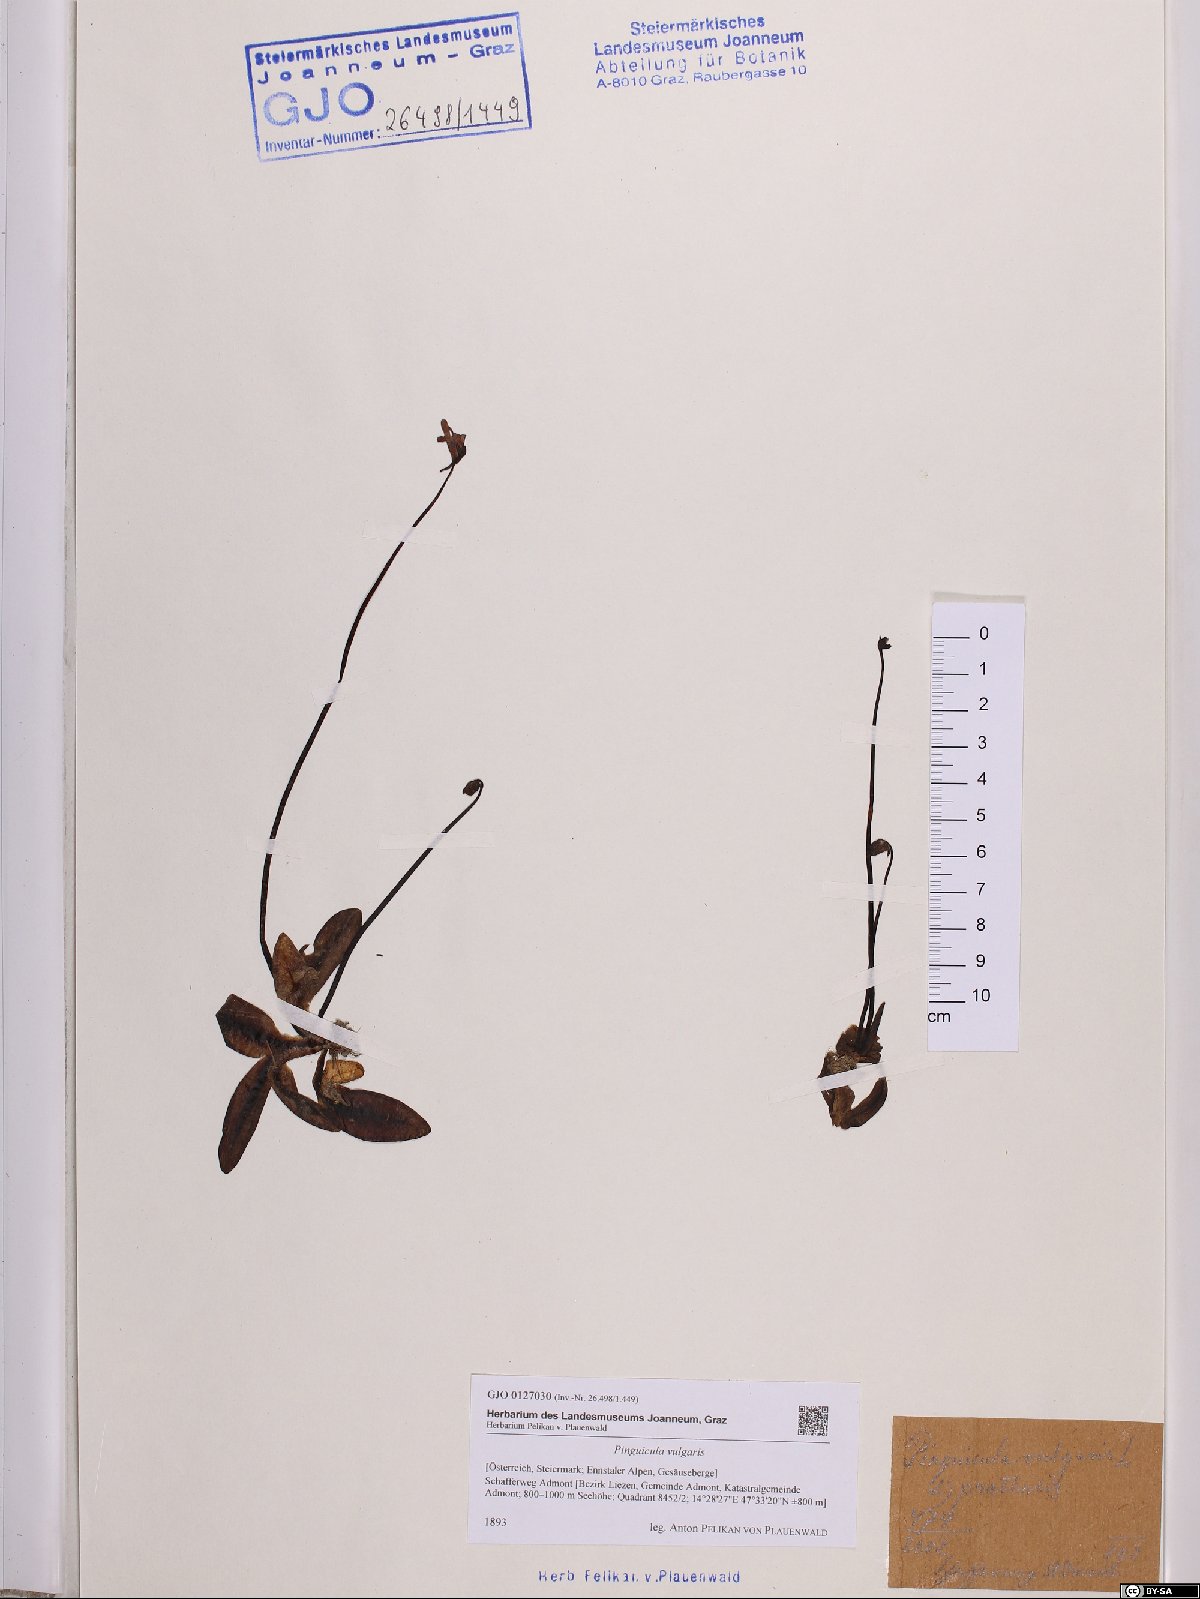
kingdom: Plantae
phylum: Tracheophyta
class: Magnoliopsida
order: Lamiales
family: Lentibulariaceae
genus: Pinguicula
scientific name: Pinguicula vulgaris
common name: Common butterwort
